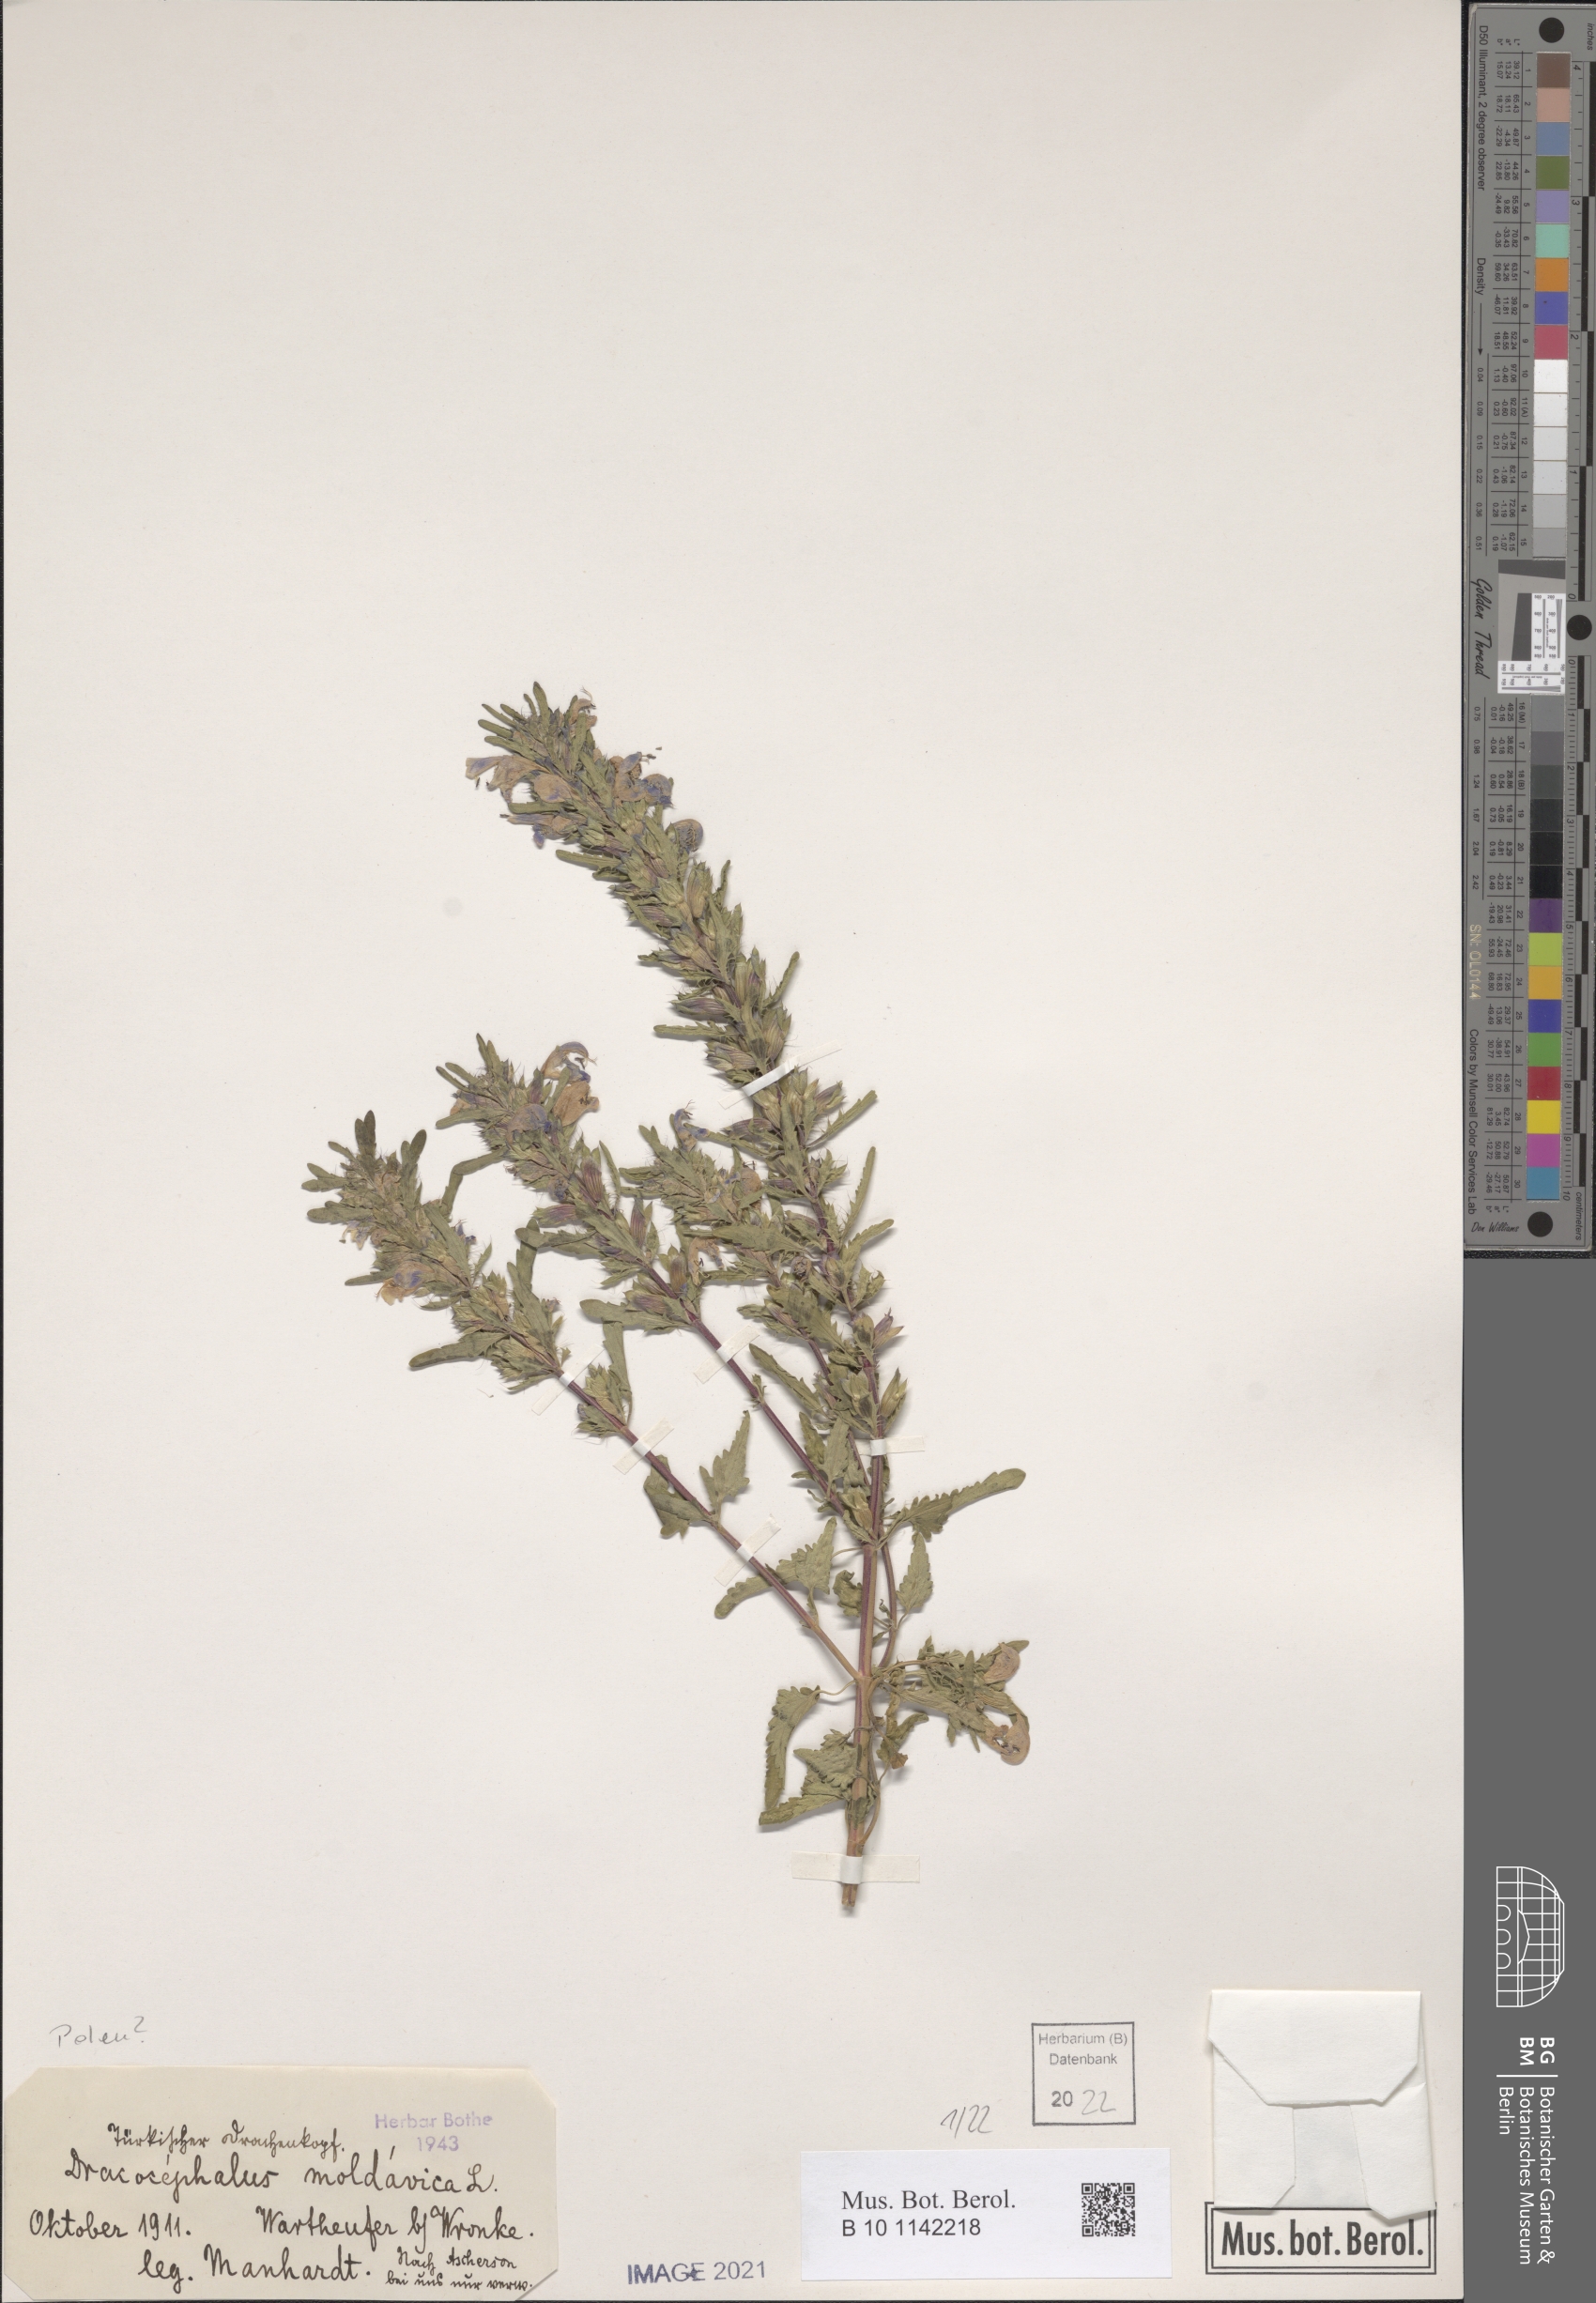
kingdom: Plantae
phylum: Tracheophyta
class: Magnoliopsida
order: Lamiales
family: Lamiaceae
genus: Dracocephalum
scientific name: Dracocephalum moldavica
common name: Moldavian dragonhead
